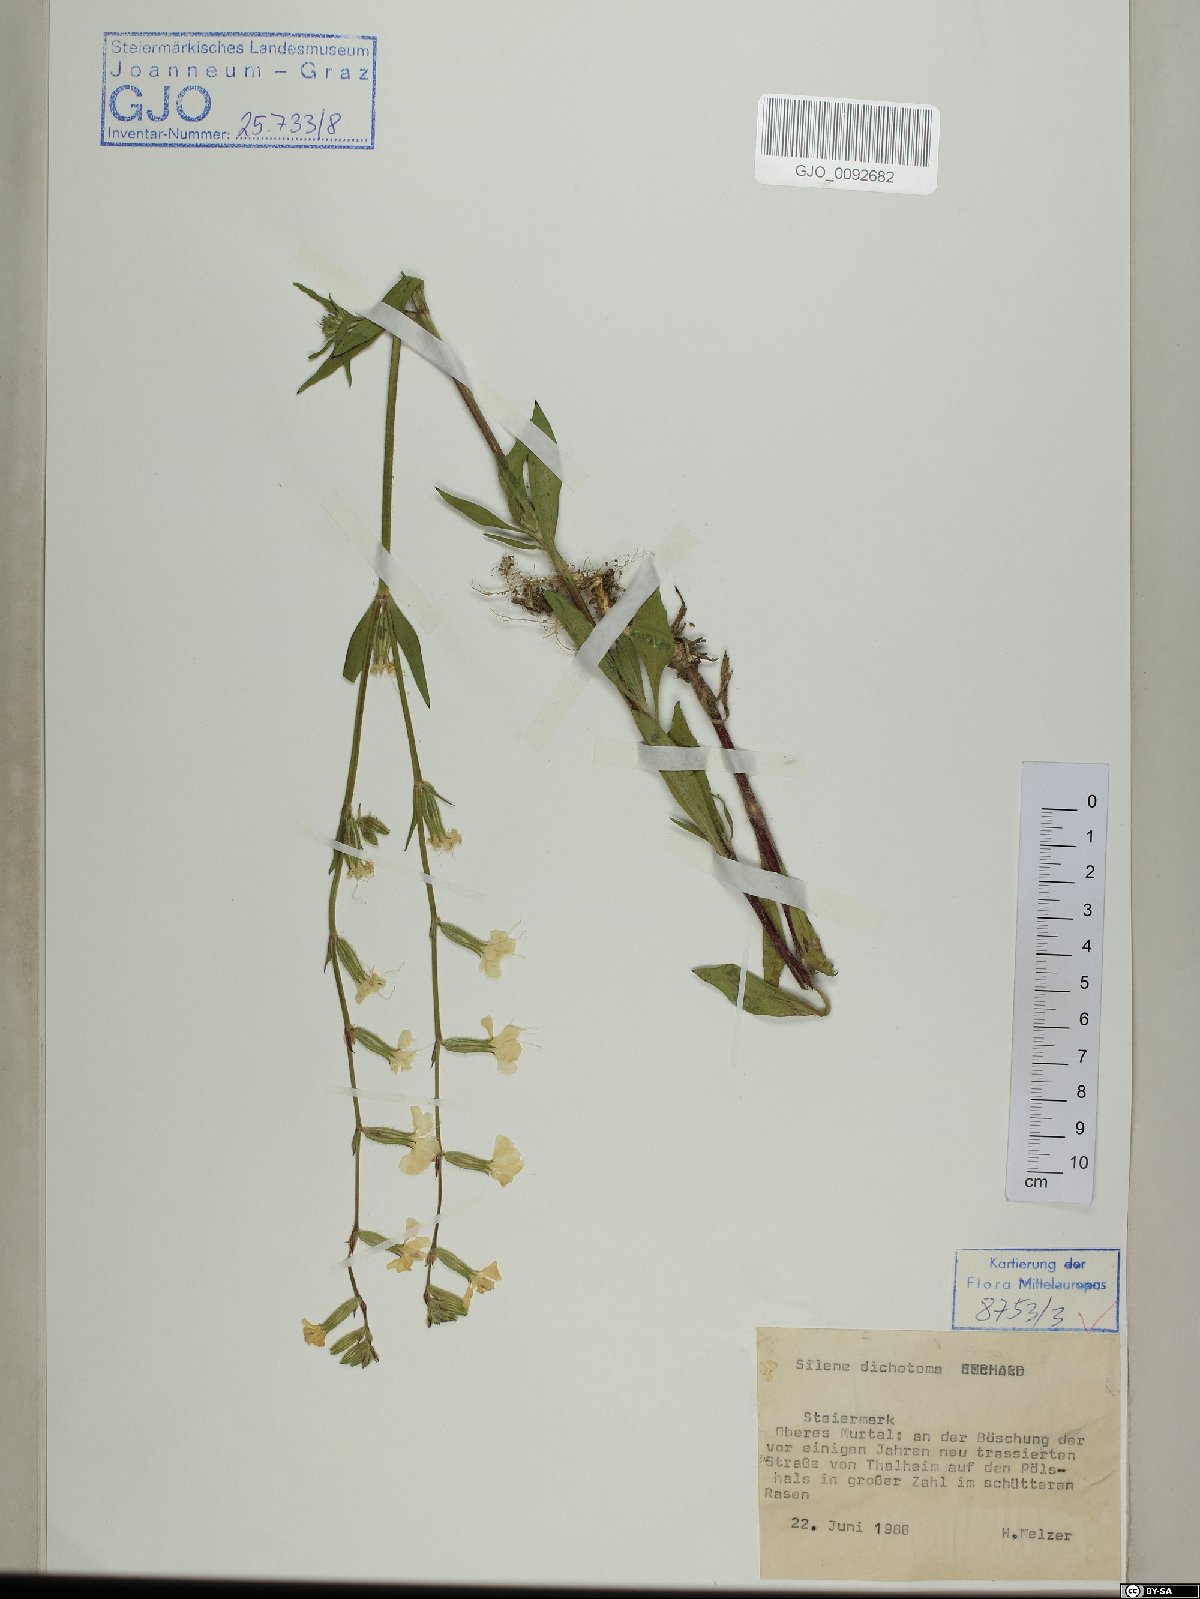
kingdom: Plantae
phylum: Tracheophyta
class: Magnoliopsida
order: Caryophyllales
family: Caryophyllaceae
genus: Silene
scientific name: Silene dichotoma
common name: Forked catchfly
